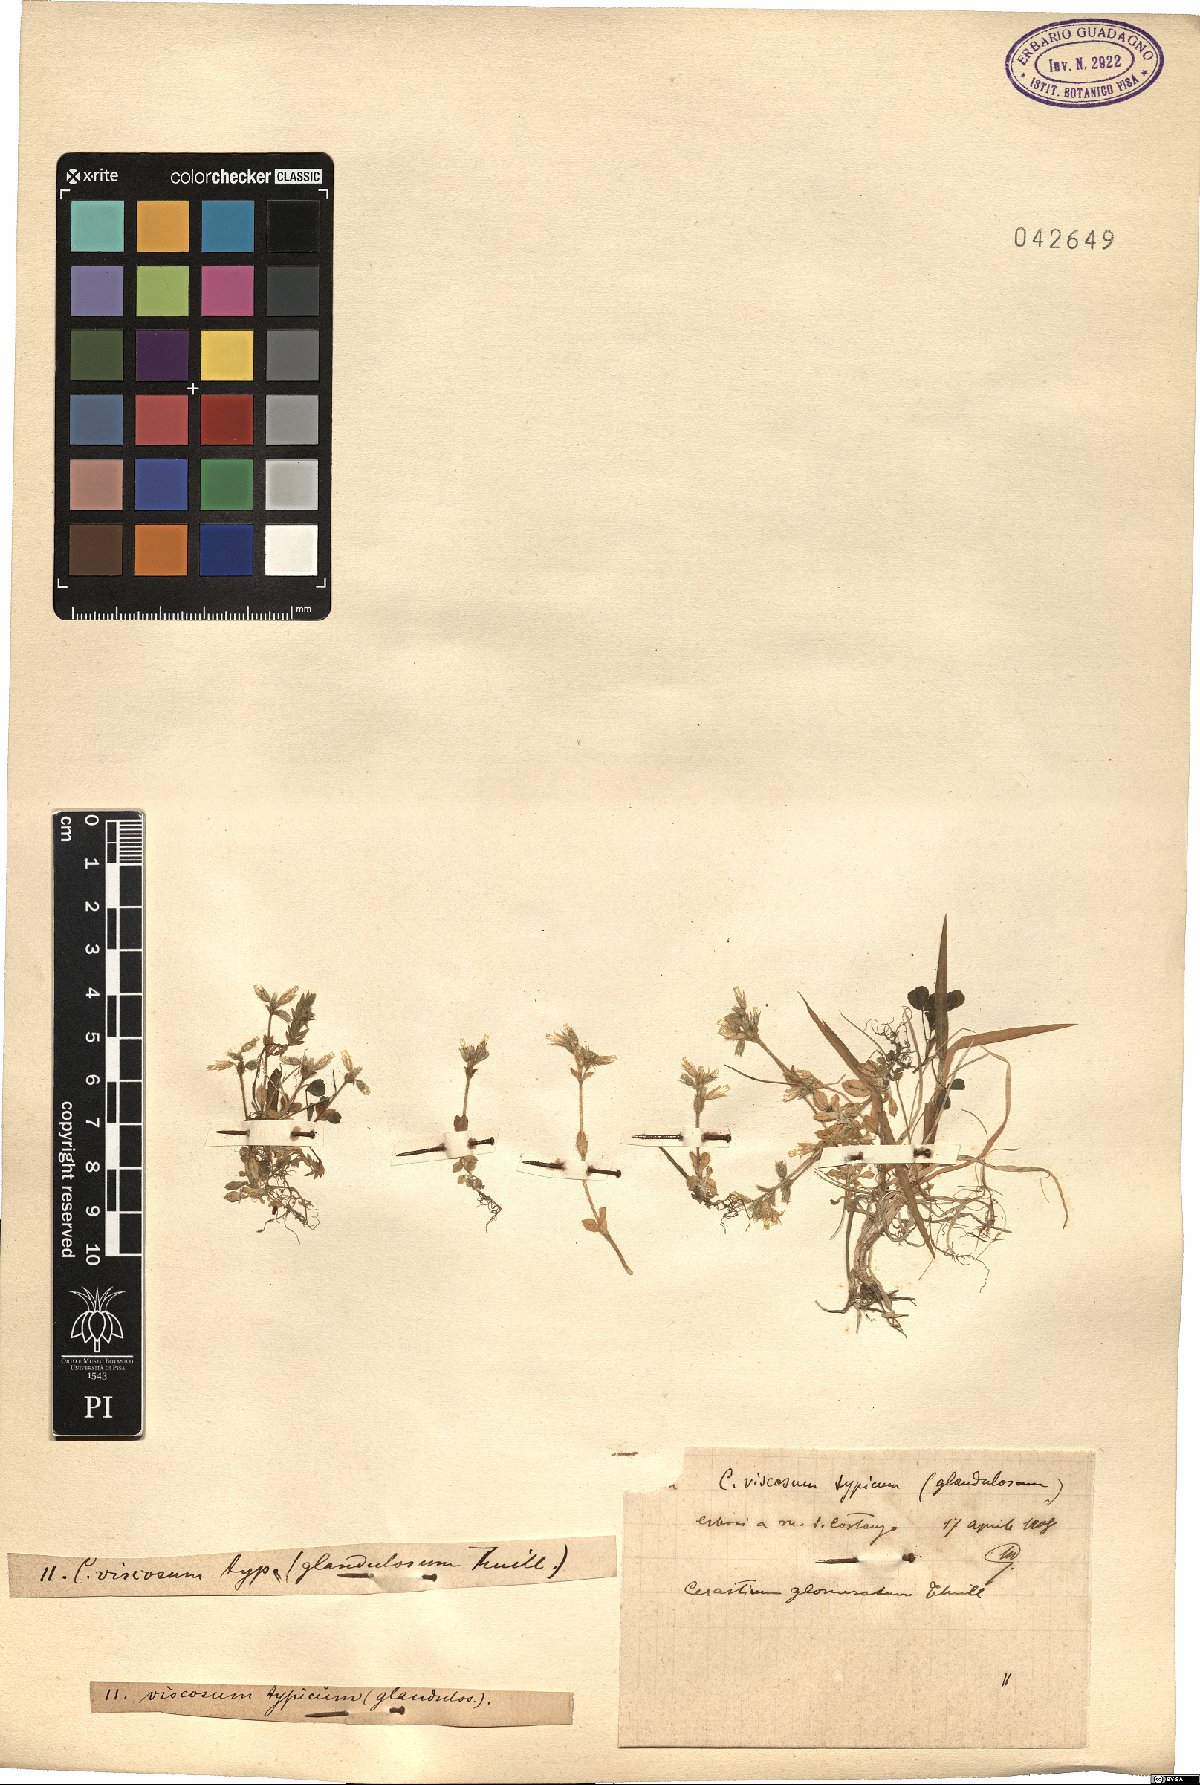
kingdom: Plantae
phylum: Tracheophyta
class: Magnoliopsida
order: Caryophyllales
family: Caryophyllaceae
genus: Cerastium
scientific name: Cerastium glomeratum
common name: Sticky chickweed
